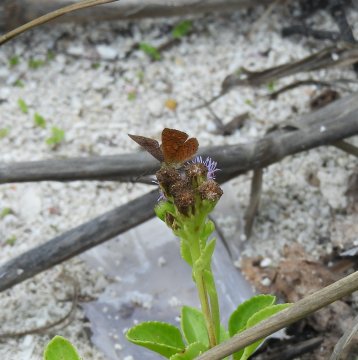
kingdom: Animalia
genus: Calephelis
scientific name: Calephelis nemesis
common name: Fatal Metalmark
